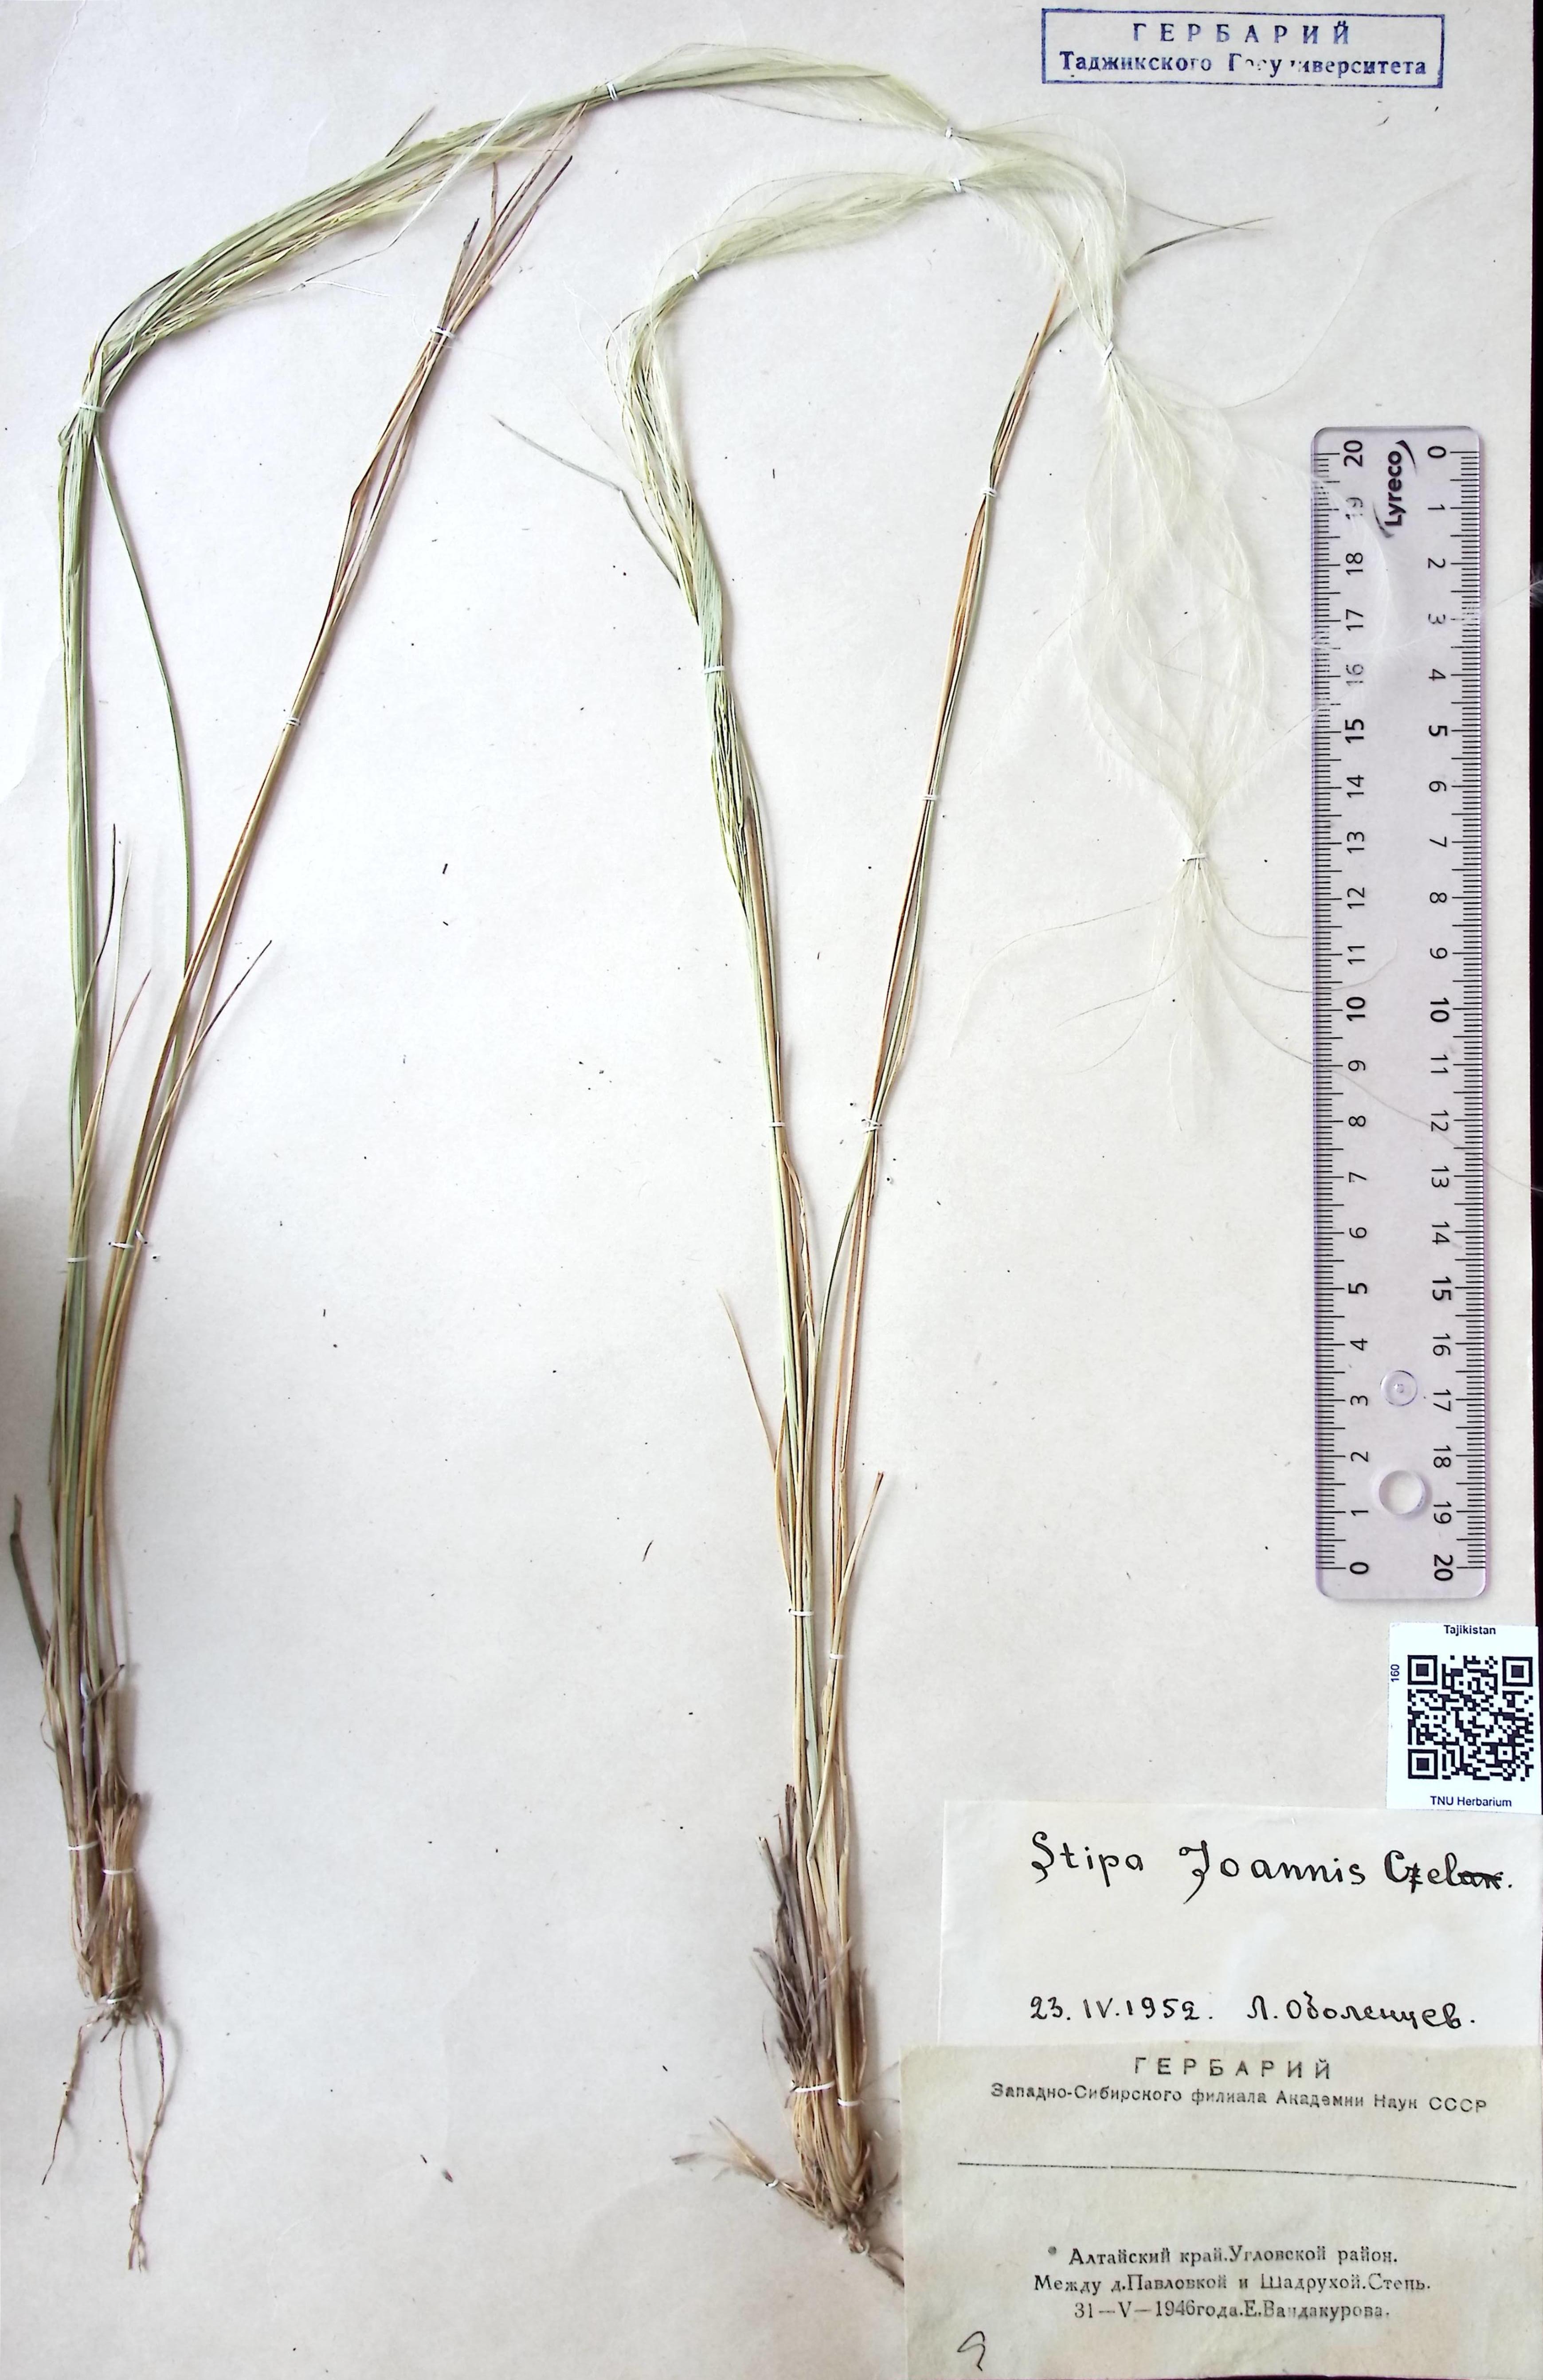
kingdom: Plantae
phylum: Tracheophyta
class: Liliopsida
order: Poales
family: Poaceae
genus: Stipa
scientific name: Stipa pennata
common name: European feather grass
